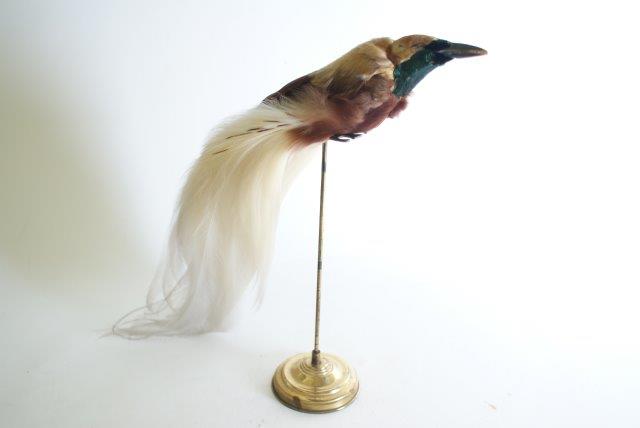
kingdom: Animalia
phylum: Chordata
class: Aves
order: Passeriformes
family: Paradisaeidae
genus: Paradisaea
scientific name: Paradisaea minor
